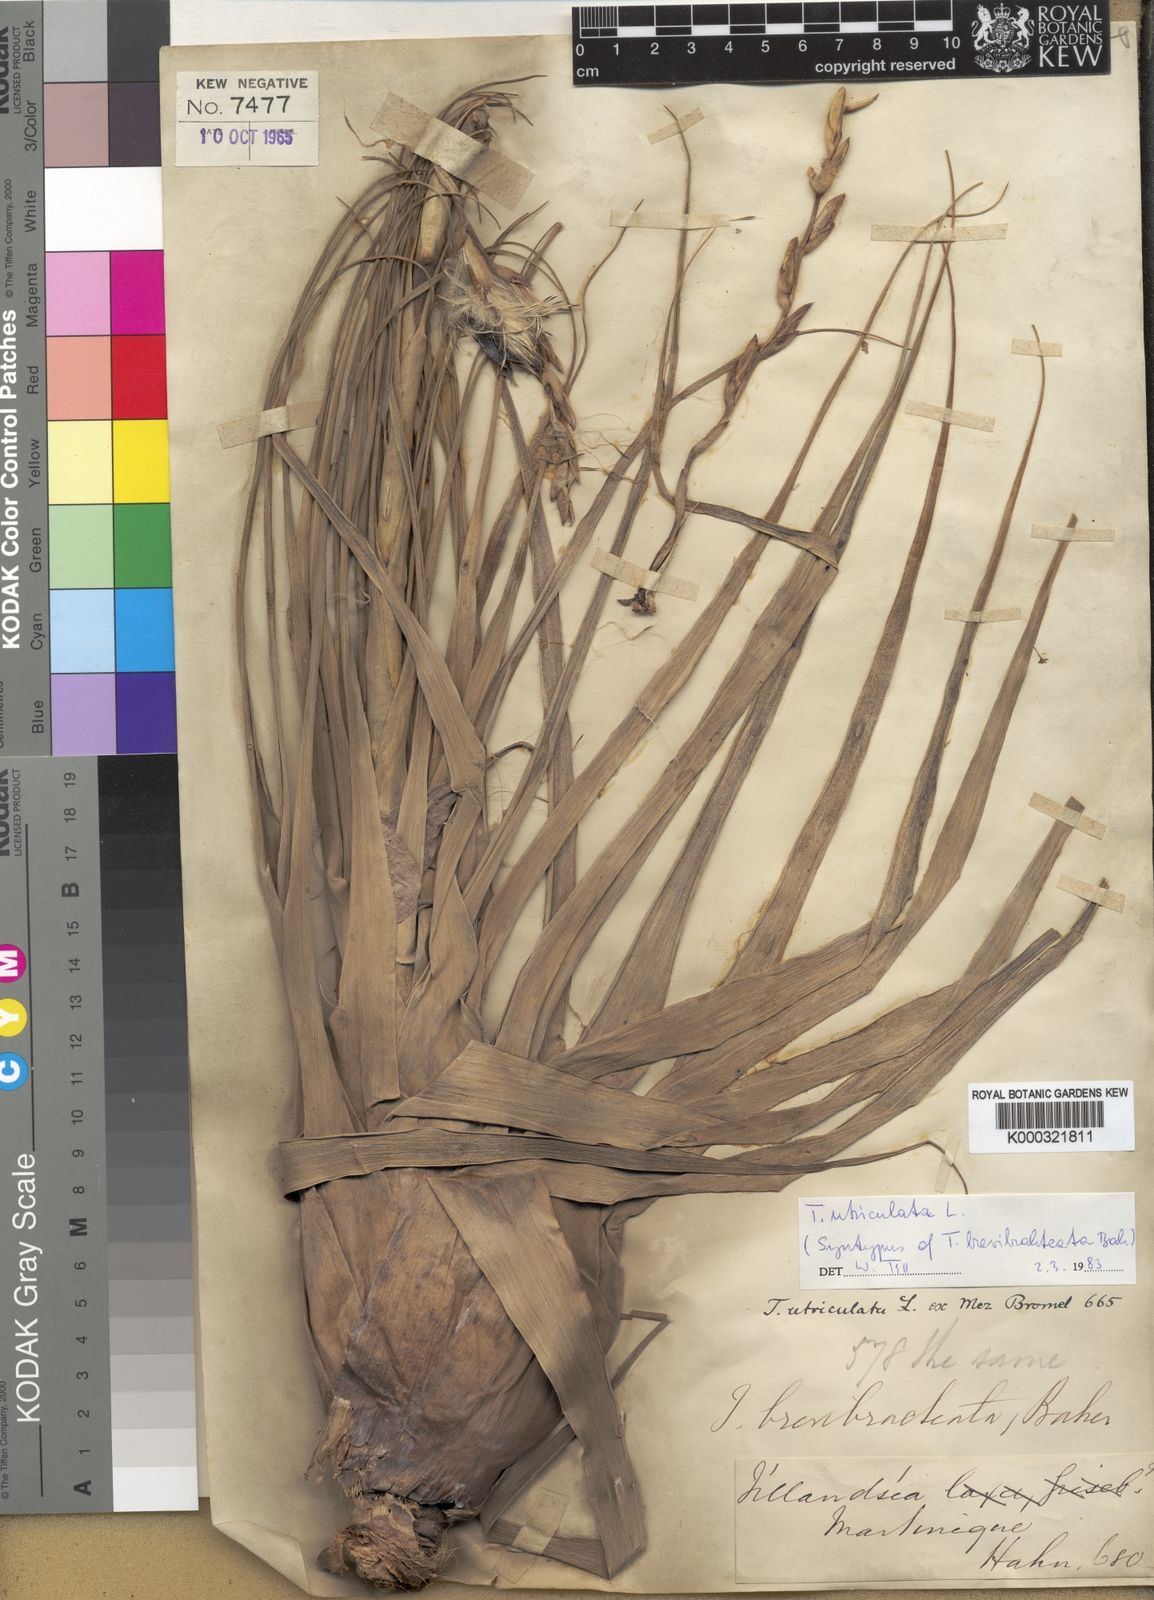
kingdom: Plantae
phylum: Tracheophyta
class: Liliopsida
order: Poales
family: Bromeliaceae
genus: Tillandsia
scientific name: Tillandsia utriculata
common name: Wild pine
